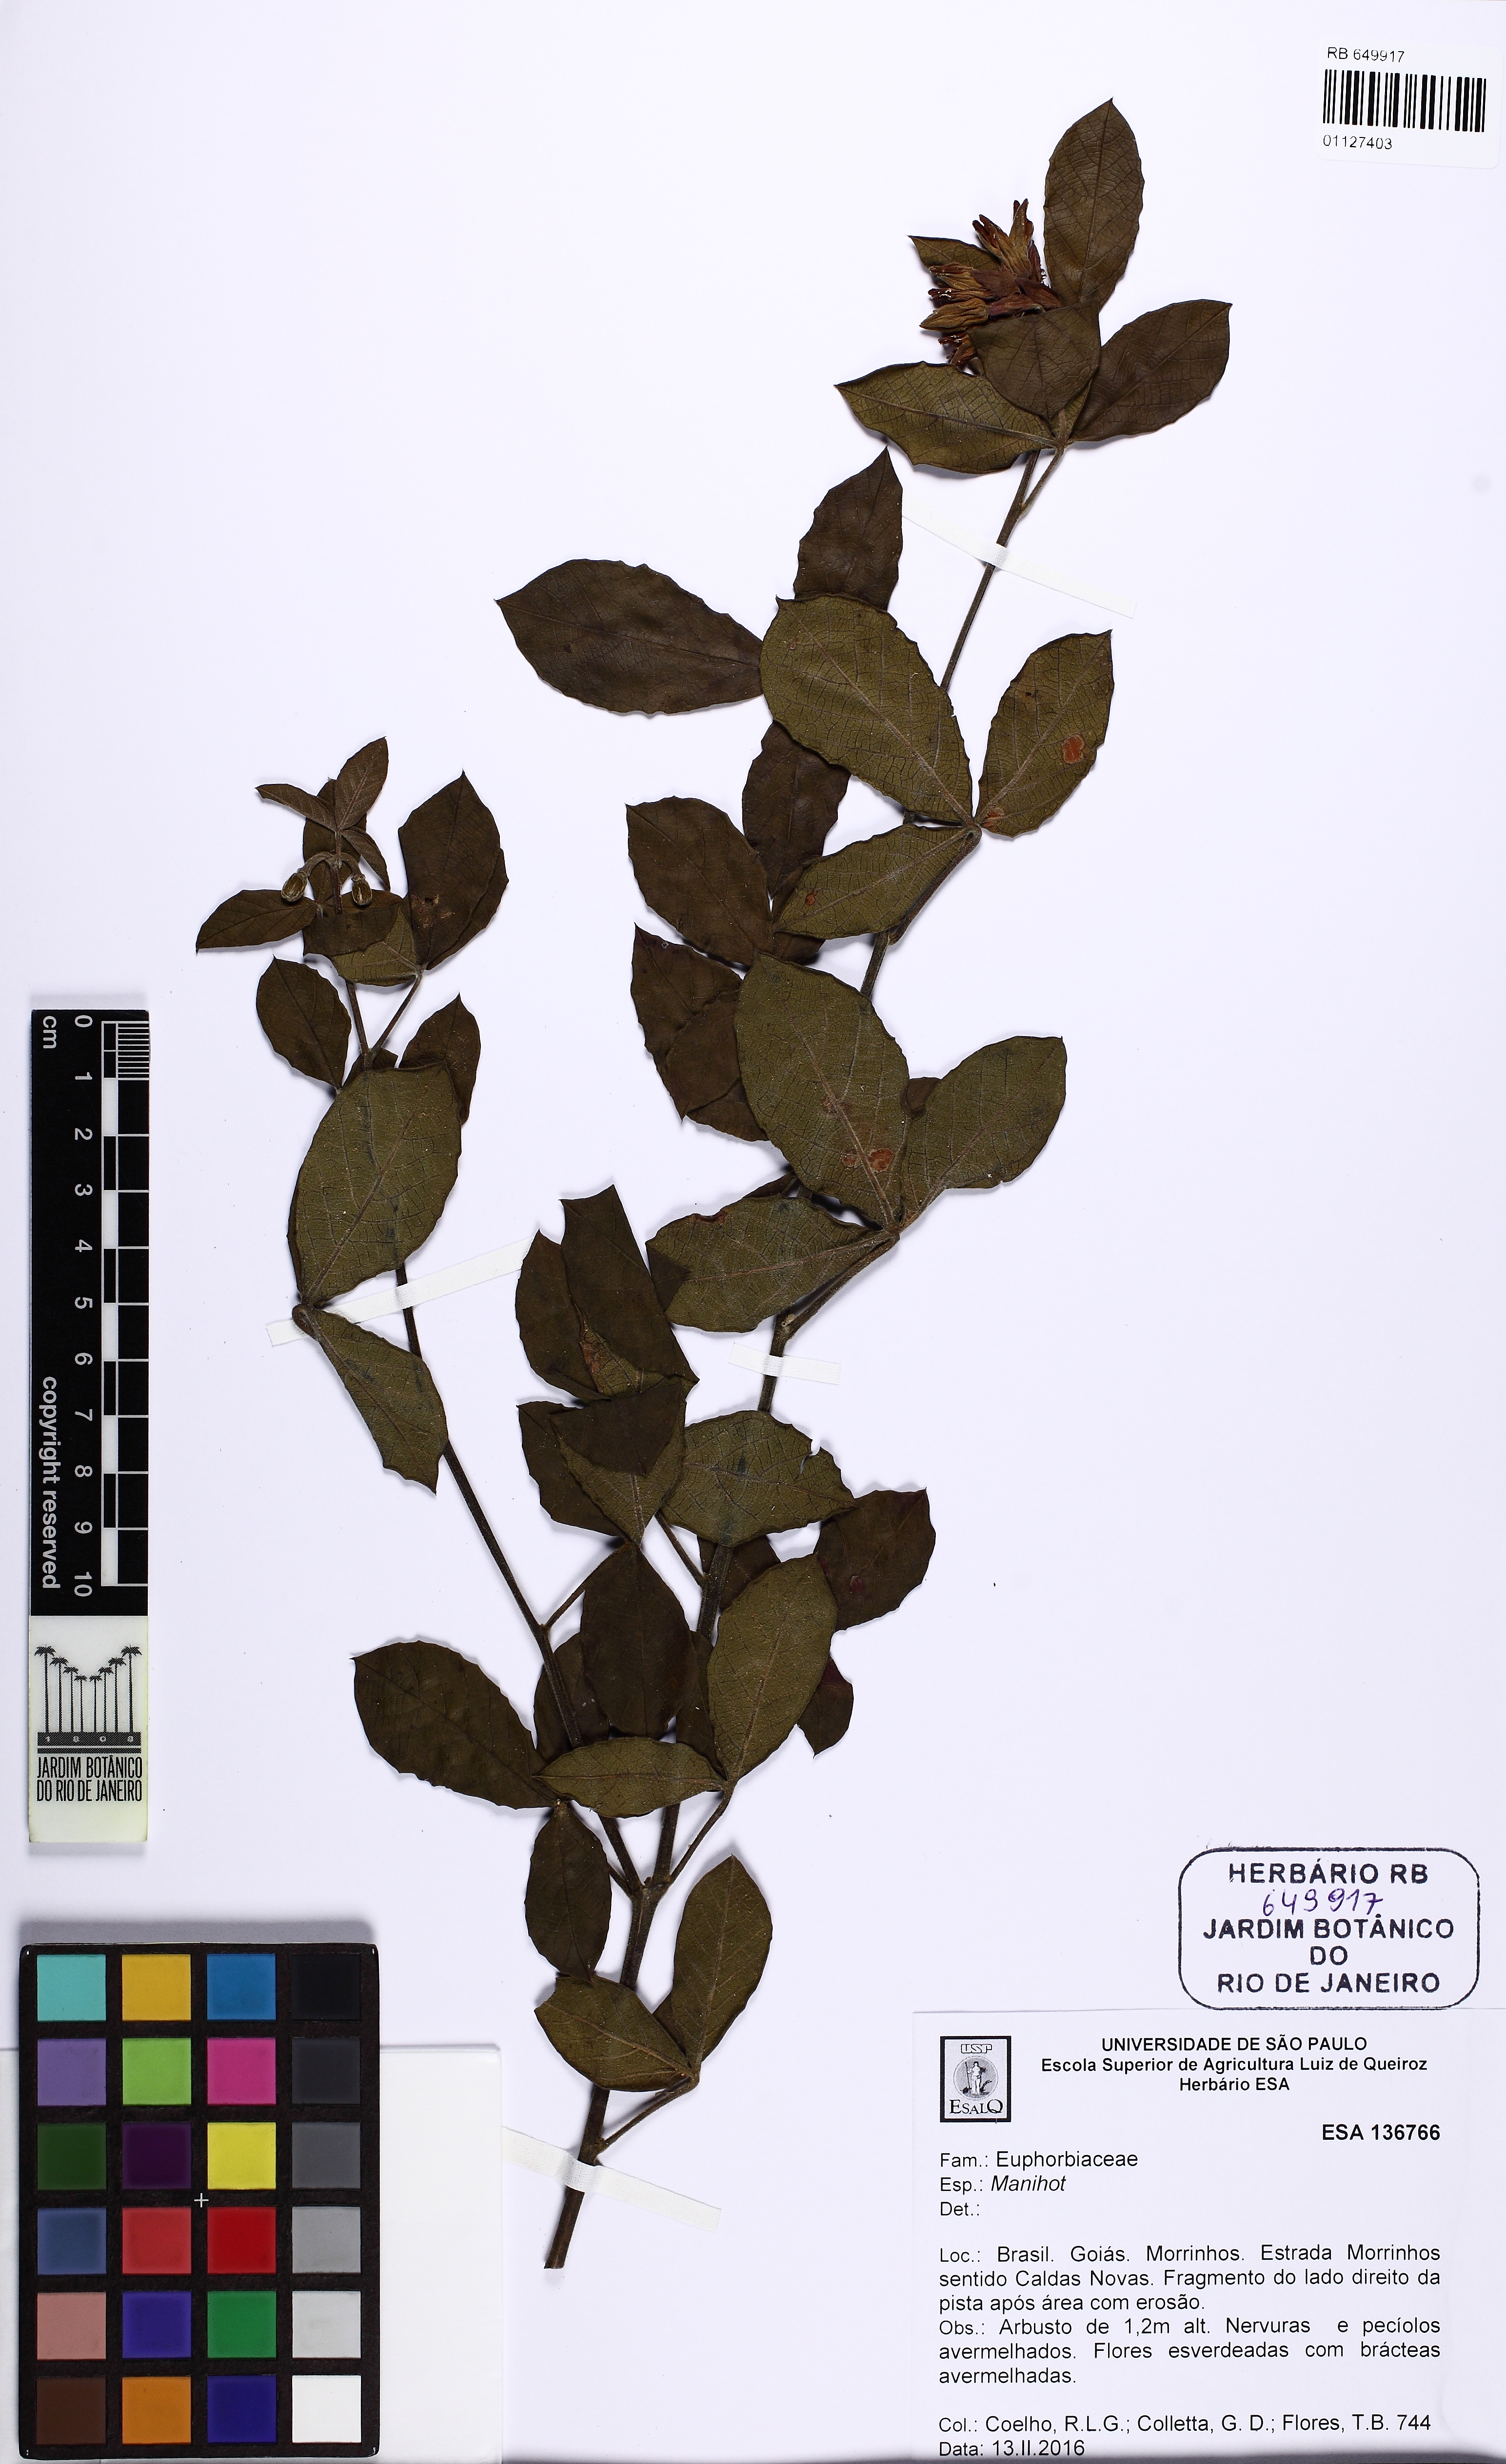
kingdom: Plantae
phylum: Tracheophyta
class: Magnoliopsida
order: Malpighiales
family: Euphorbiaceae
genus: Manihot
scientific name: Manihot
